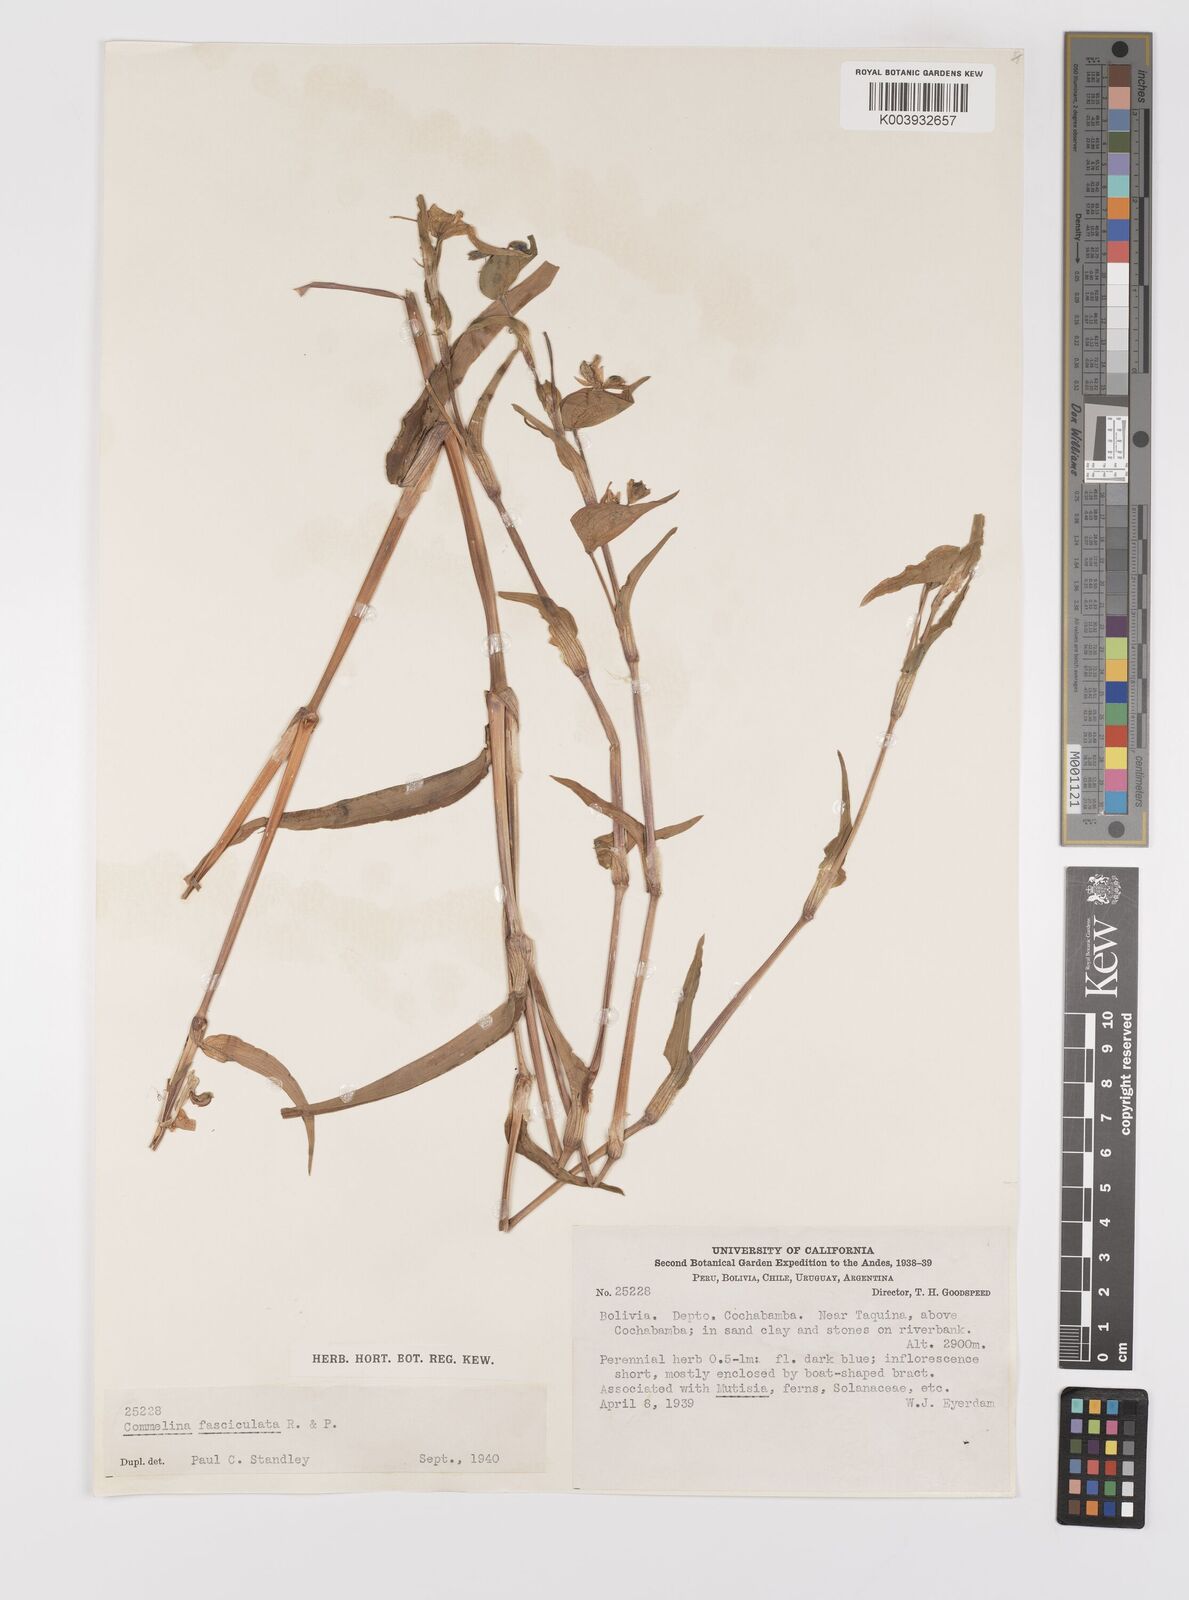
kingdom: Plantae
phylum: Tracheophyta
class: Liliopsida
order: Commelinales
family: Commelinaceae
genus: Commelina
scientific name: Commelina tuberosa
